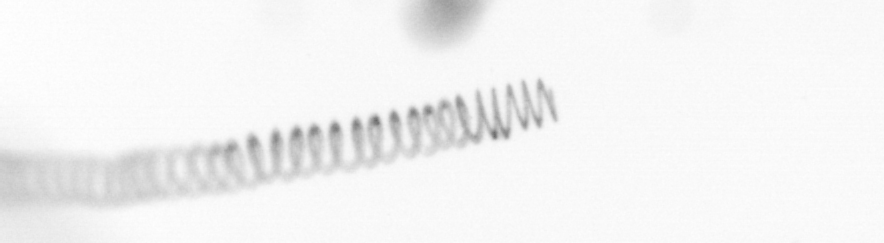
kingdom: Chromista
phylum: Ochrophyta
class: Bacillariophyceae
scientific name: Bacillariophyceae
